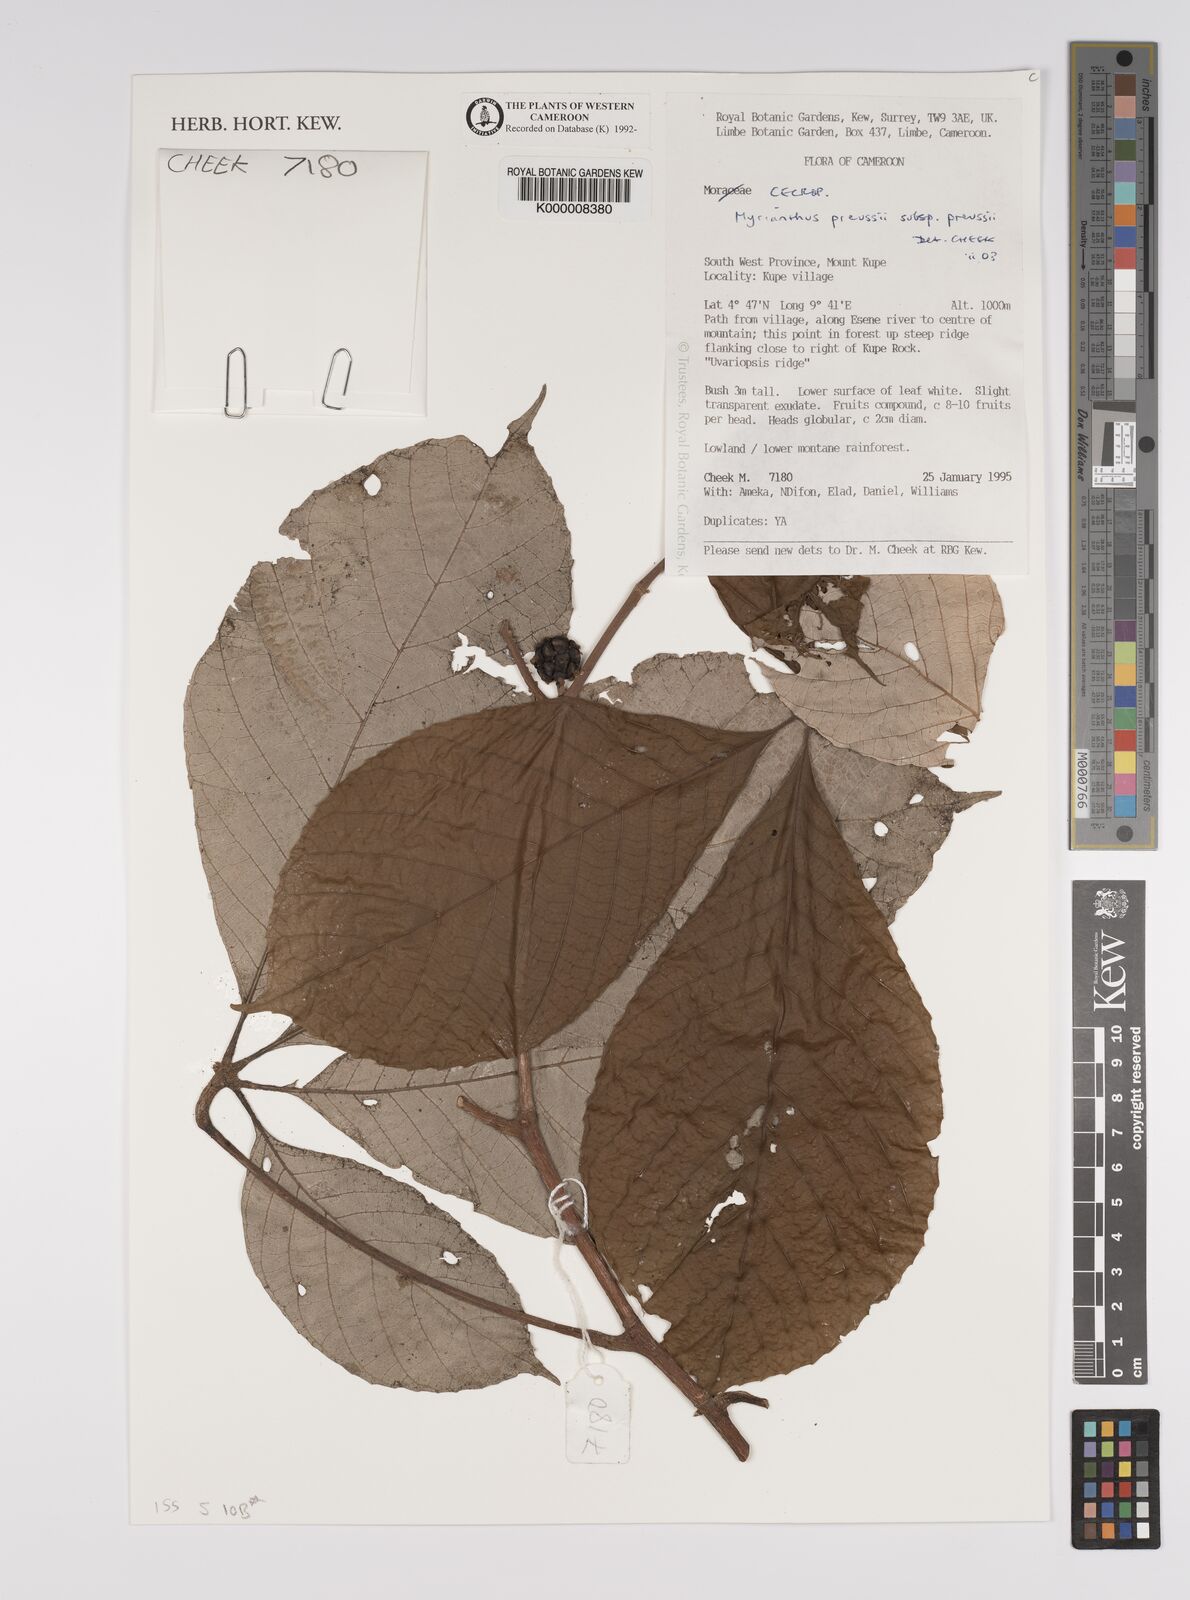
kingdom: Plantae
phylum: Tracheophyta
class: Magnoliopsida
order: Rosales
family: Urticaceae
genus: Myrianthus
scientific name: Myrianthus preussii
